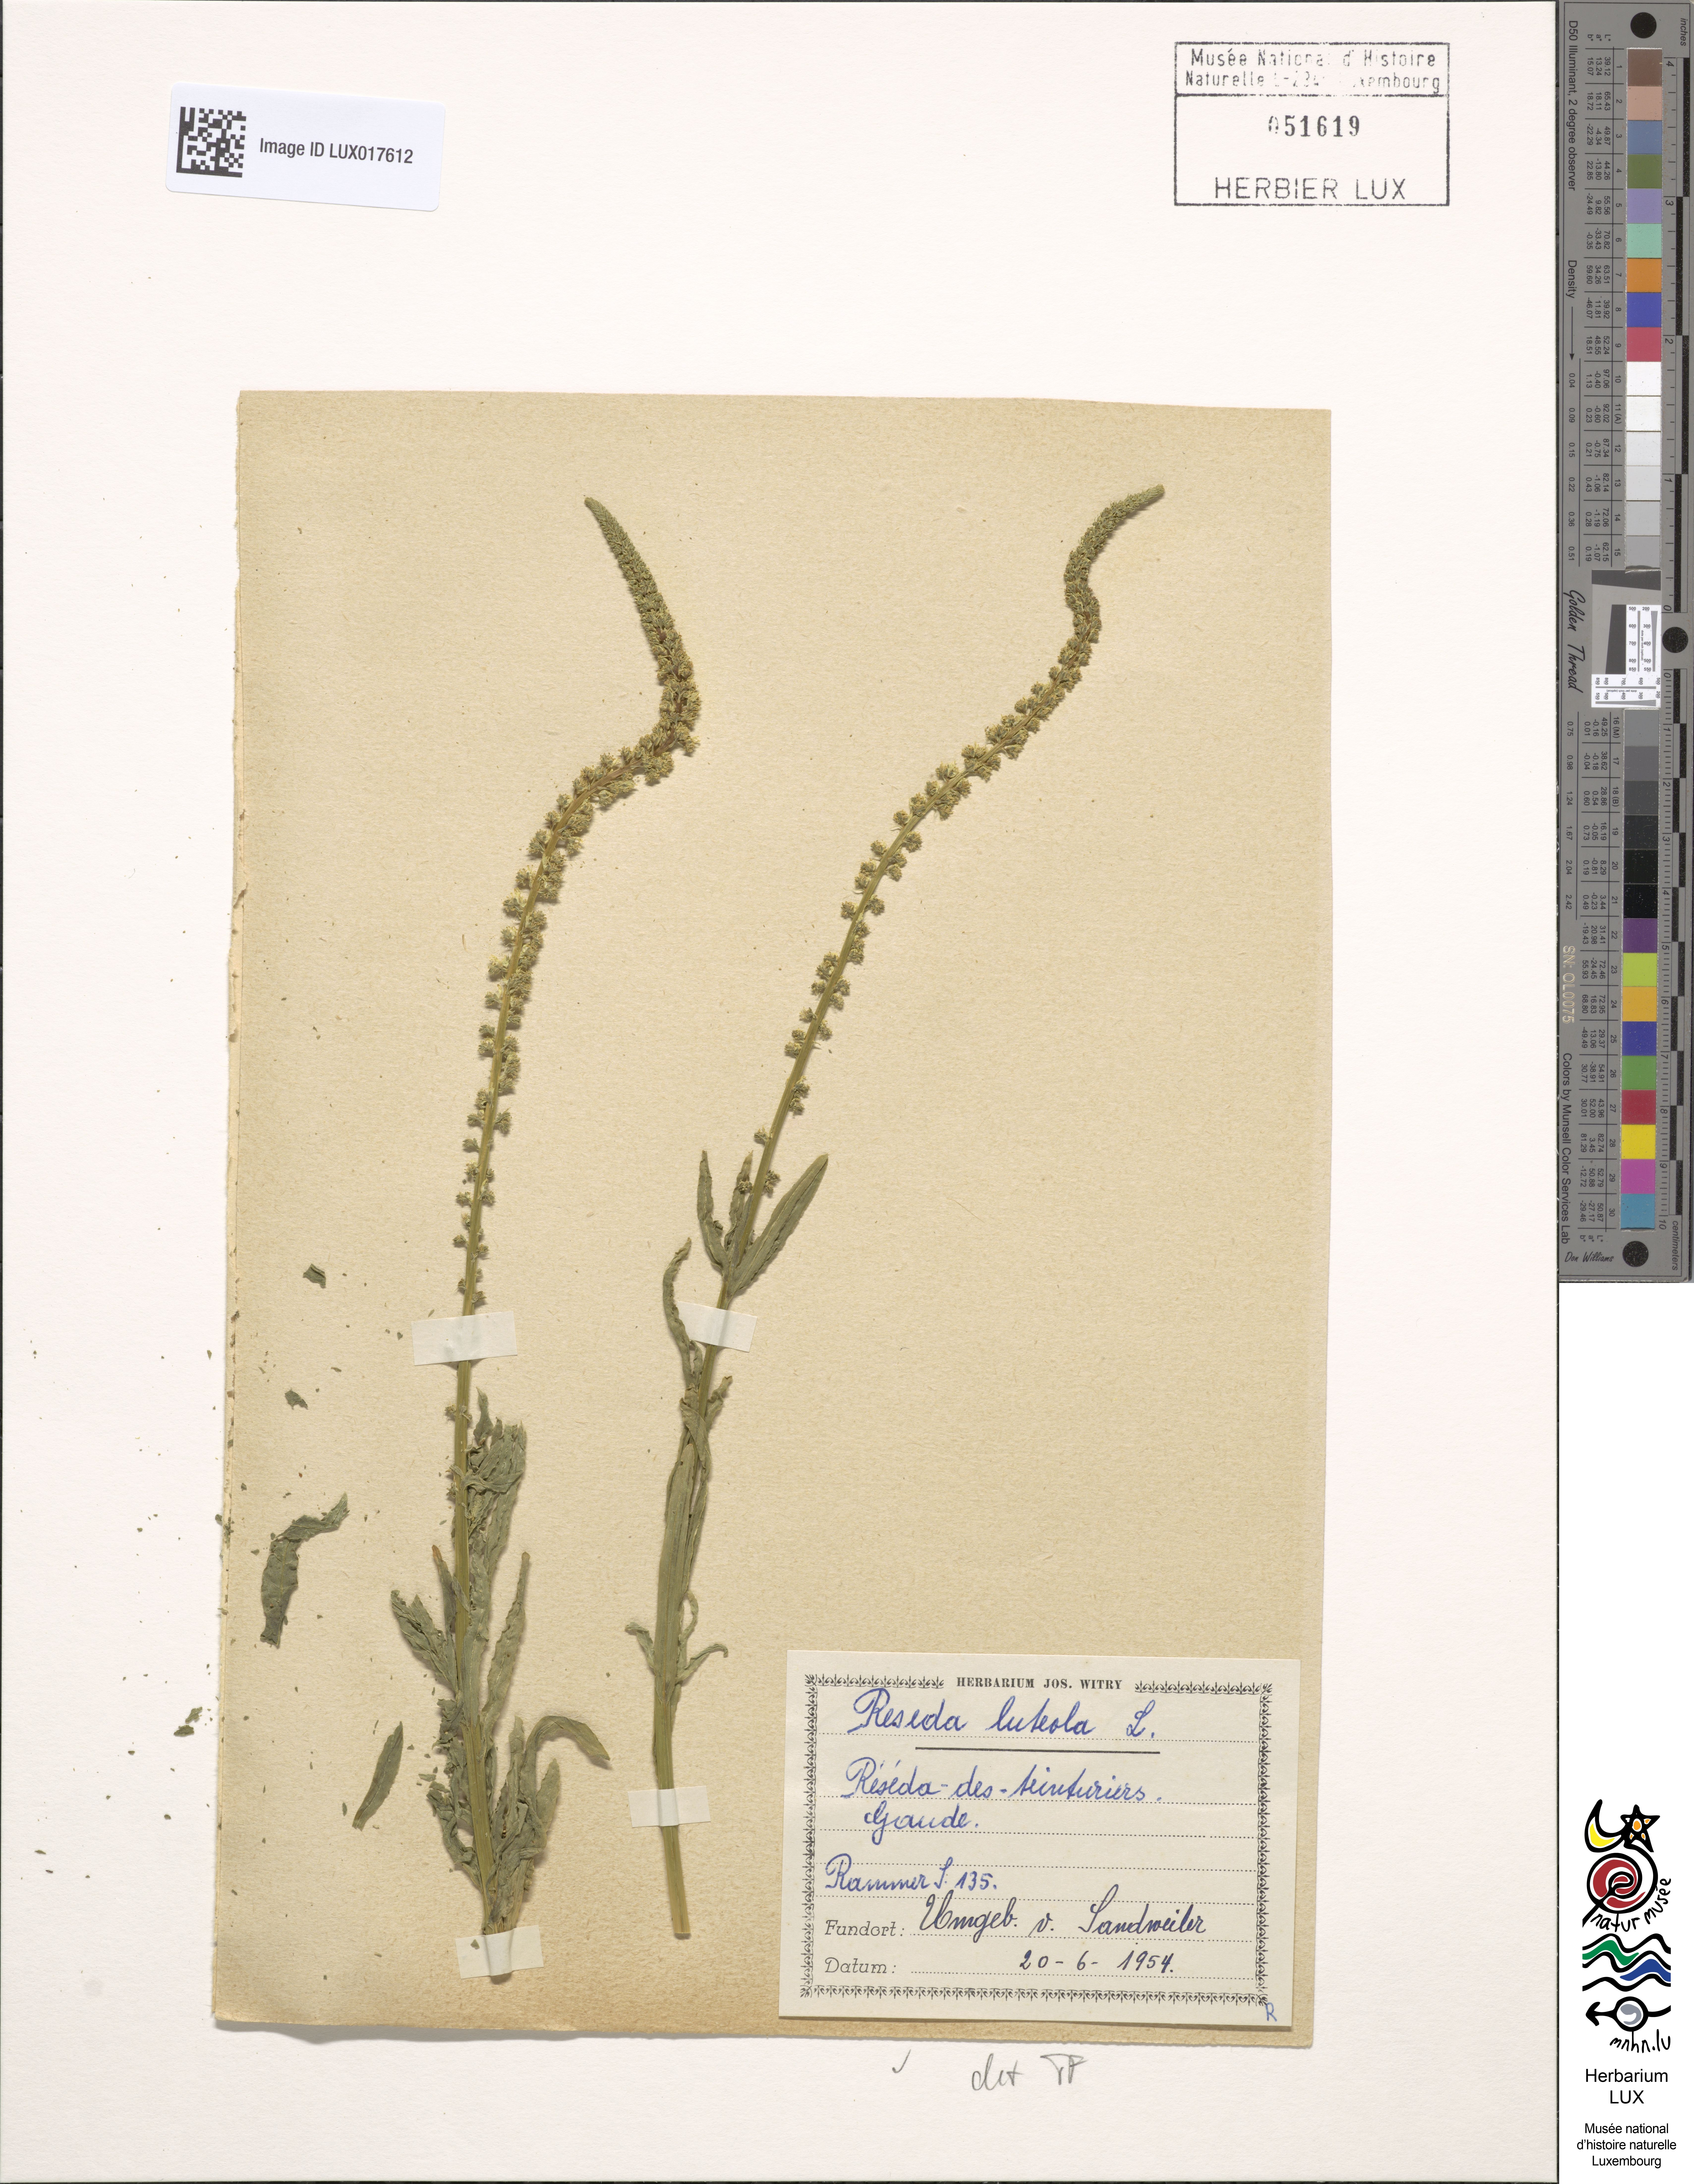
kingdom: Plantae
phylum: Tracheophyta
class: Magnoliopsida
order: Brassicales
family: Resedaceae
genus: Reseda
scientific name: Reseda luteola
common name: Weld
